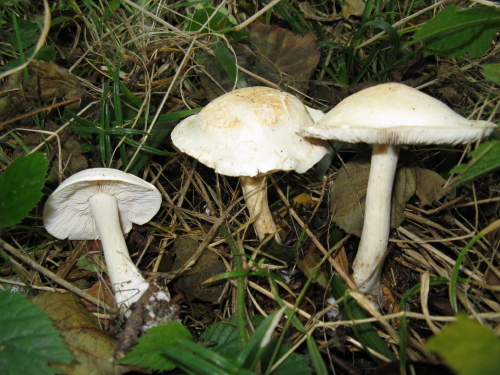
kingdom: Fungi
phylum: Basidiomycota
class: Agaricomycetes
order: Agaricales
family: Tricholomataceae
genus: Tricholoma
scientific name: Tricholoma stiparophyllum
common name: hvid ridderhat
